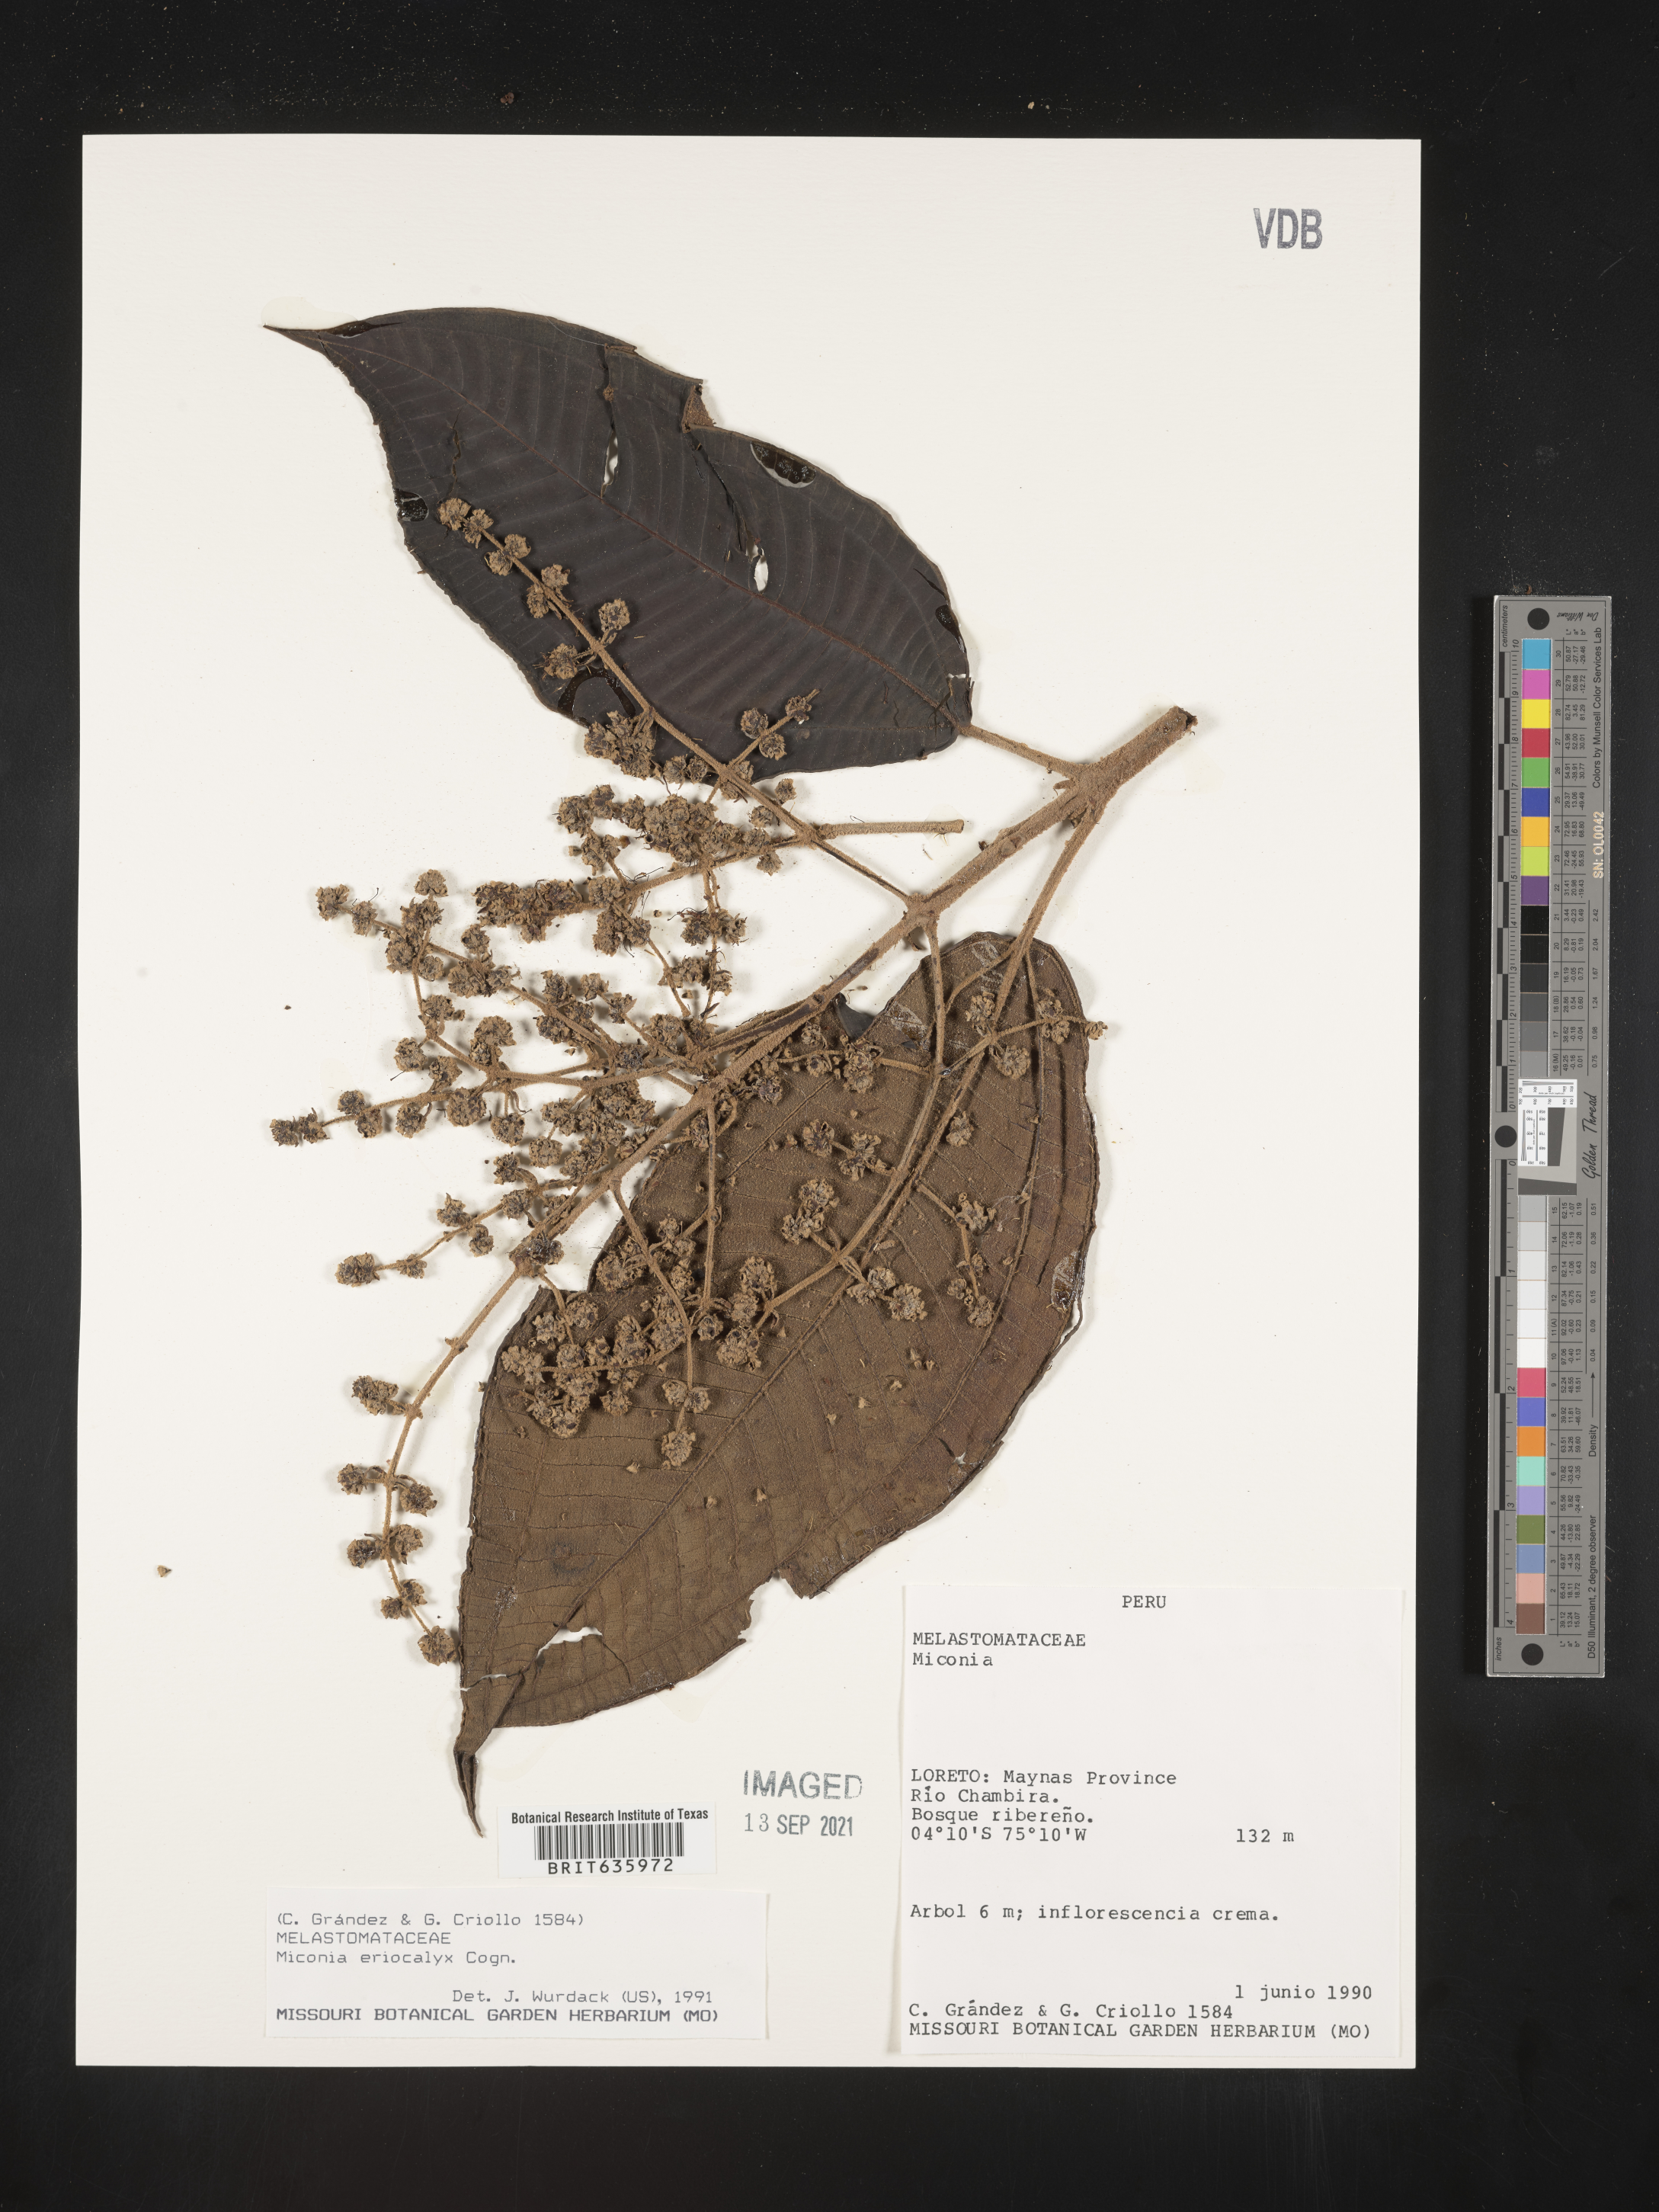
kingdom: Plantae
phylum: Tracheophyta
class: Magnoliopsida
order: Myrtales
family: Melastomataceae
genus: Miconia
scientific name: Miconia
